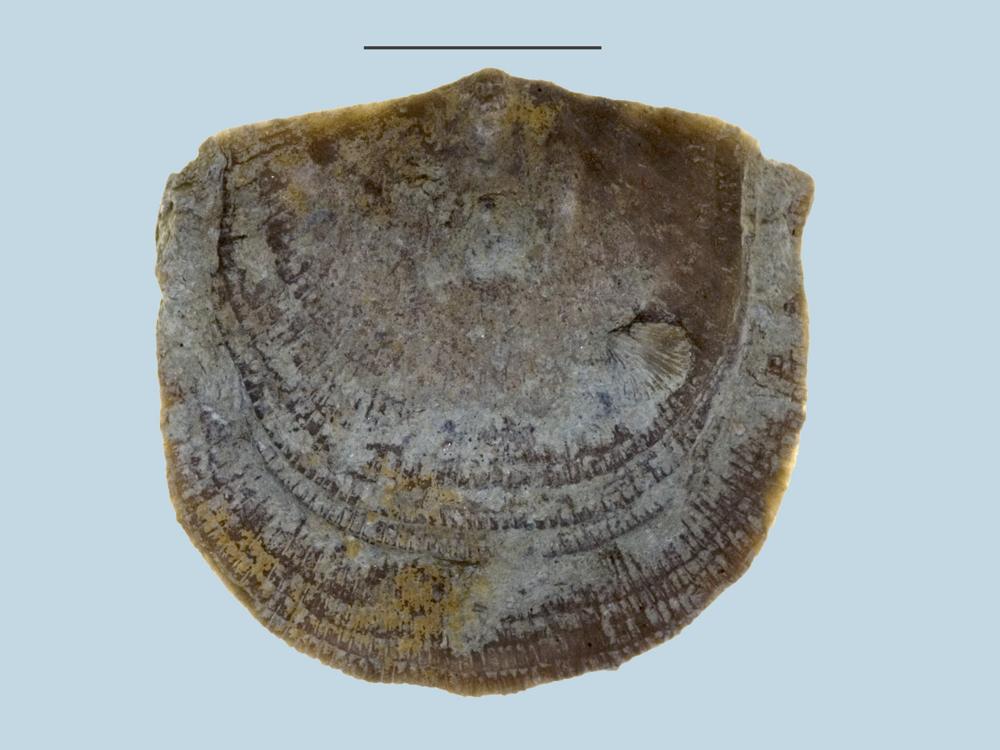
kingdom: Animalia
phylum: Brachiopoda
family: Gonambonitidae
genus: Estlandia
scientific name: Estlandia Orthisina marginata
